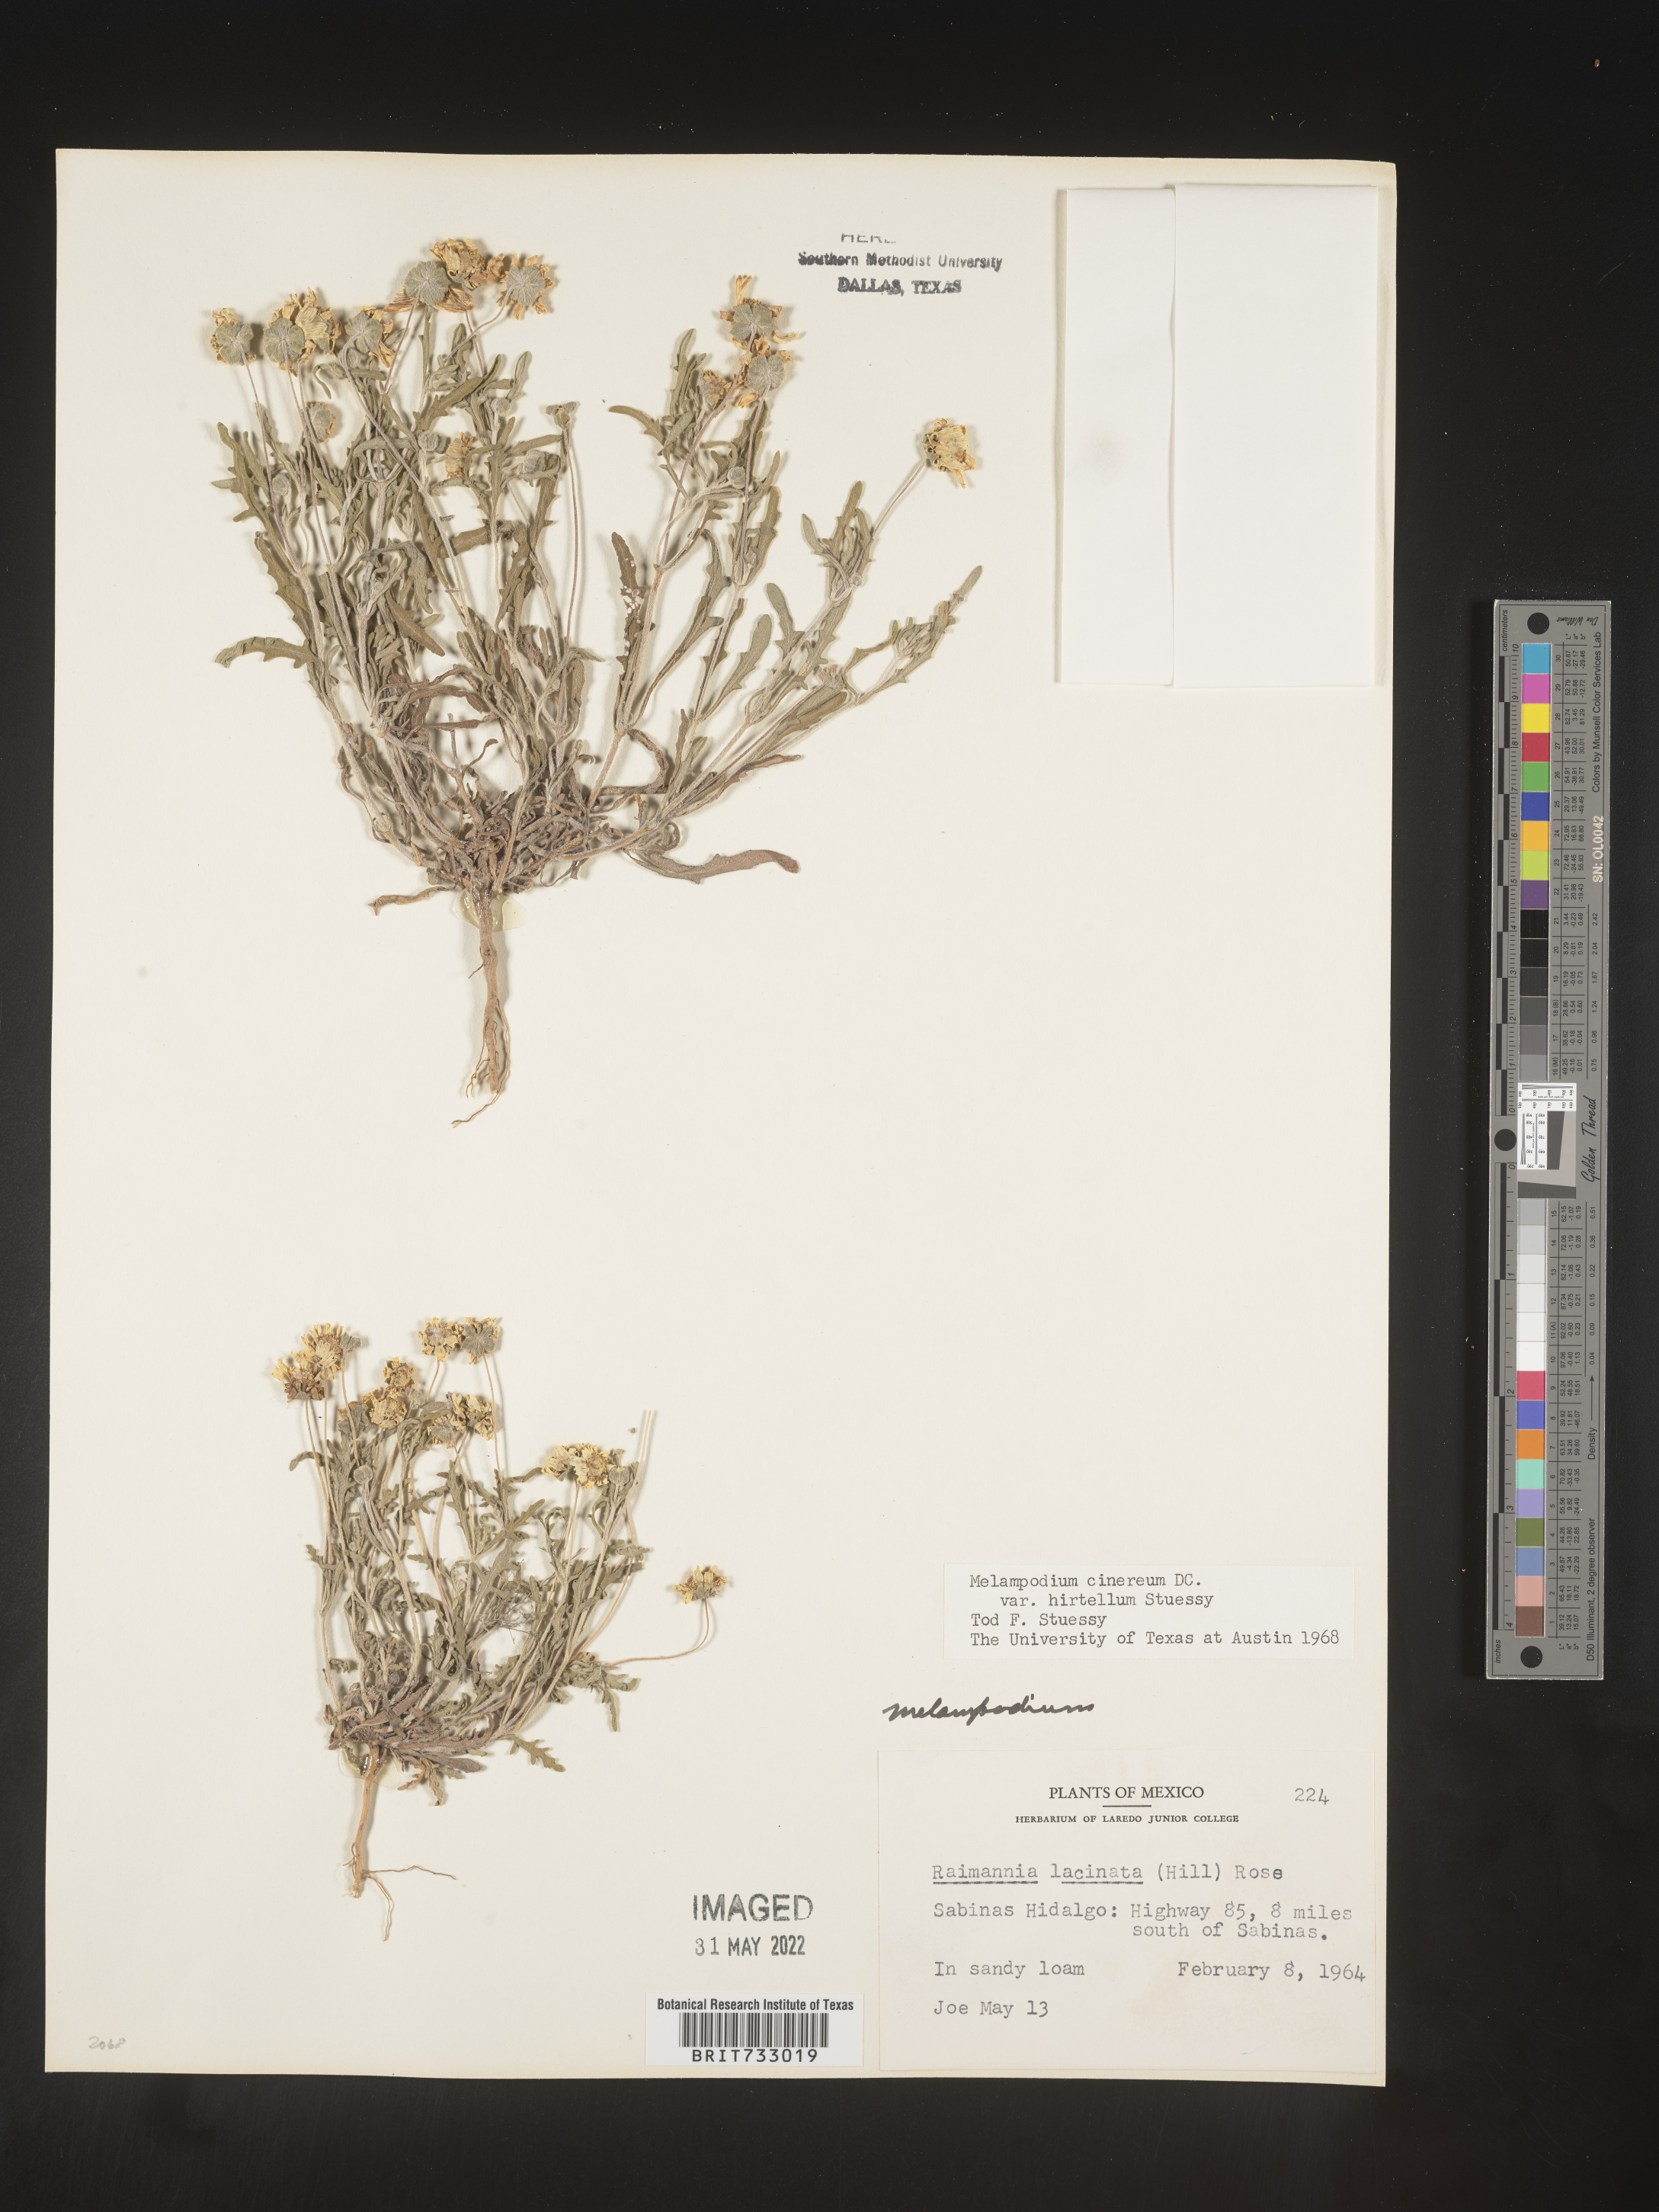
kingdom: Plantae
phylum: Tracheophyta
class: Magnoliopsida
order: Asterales
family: Asteraceae
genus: Melampodium
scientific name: Melampodium
